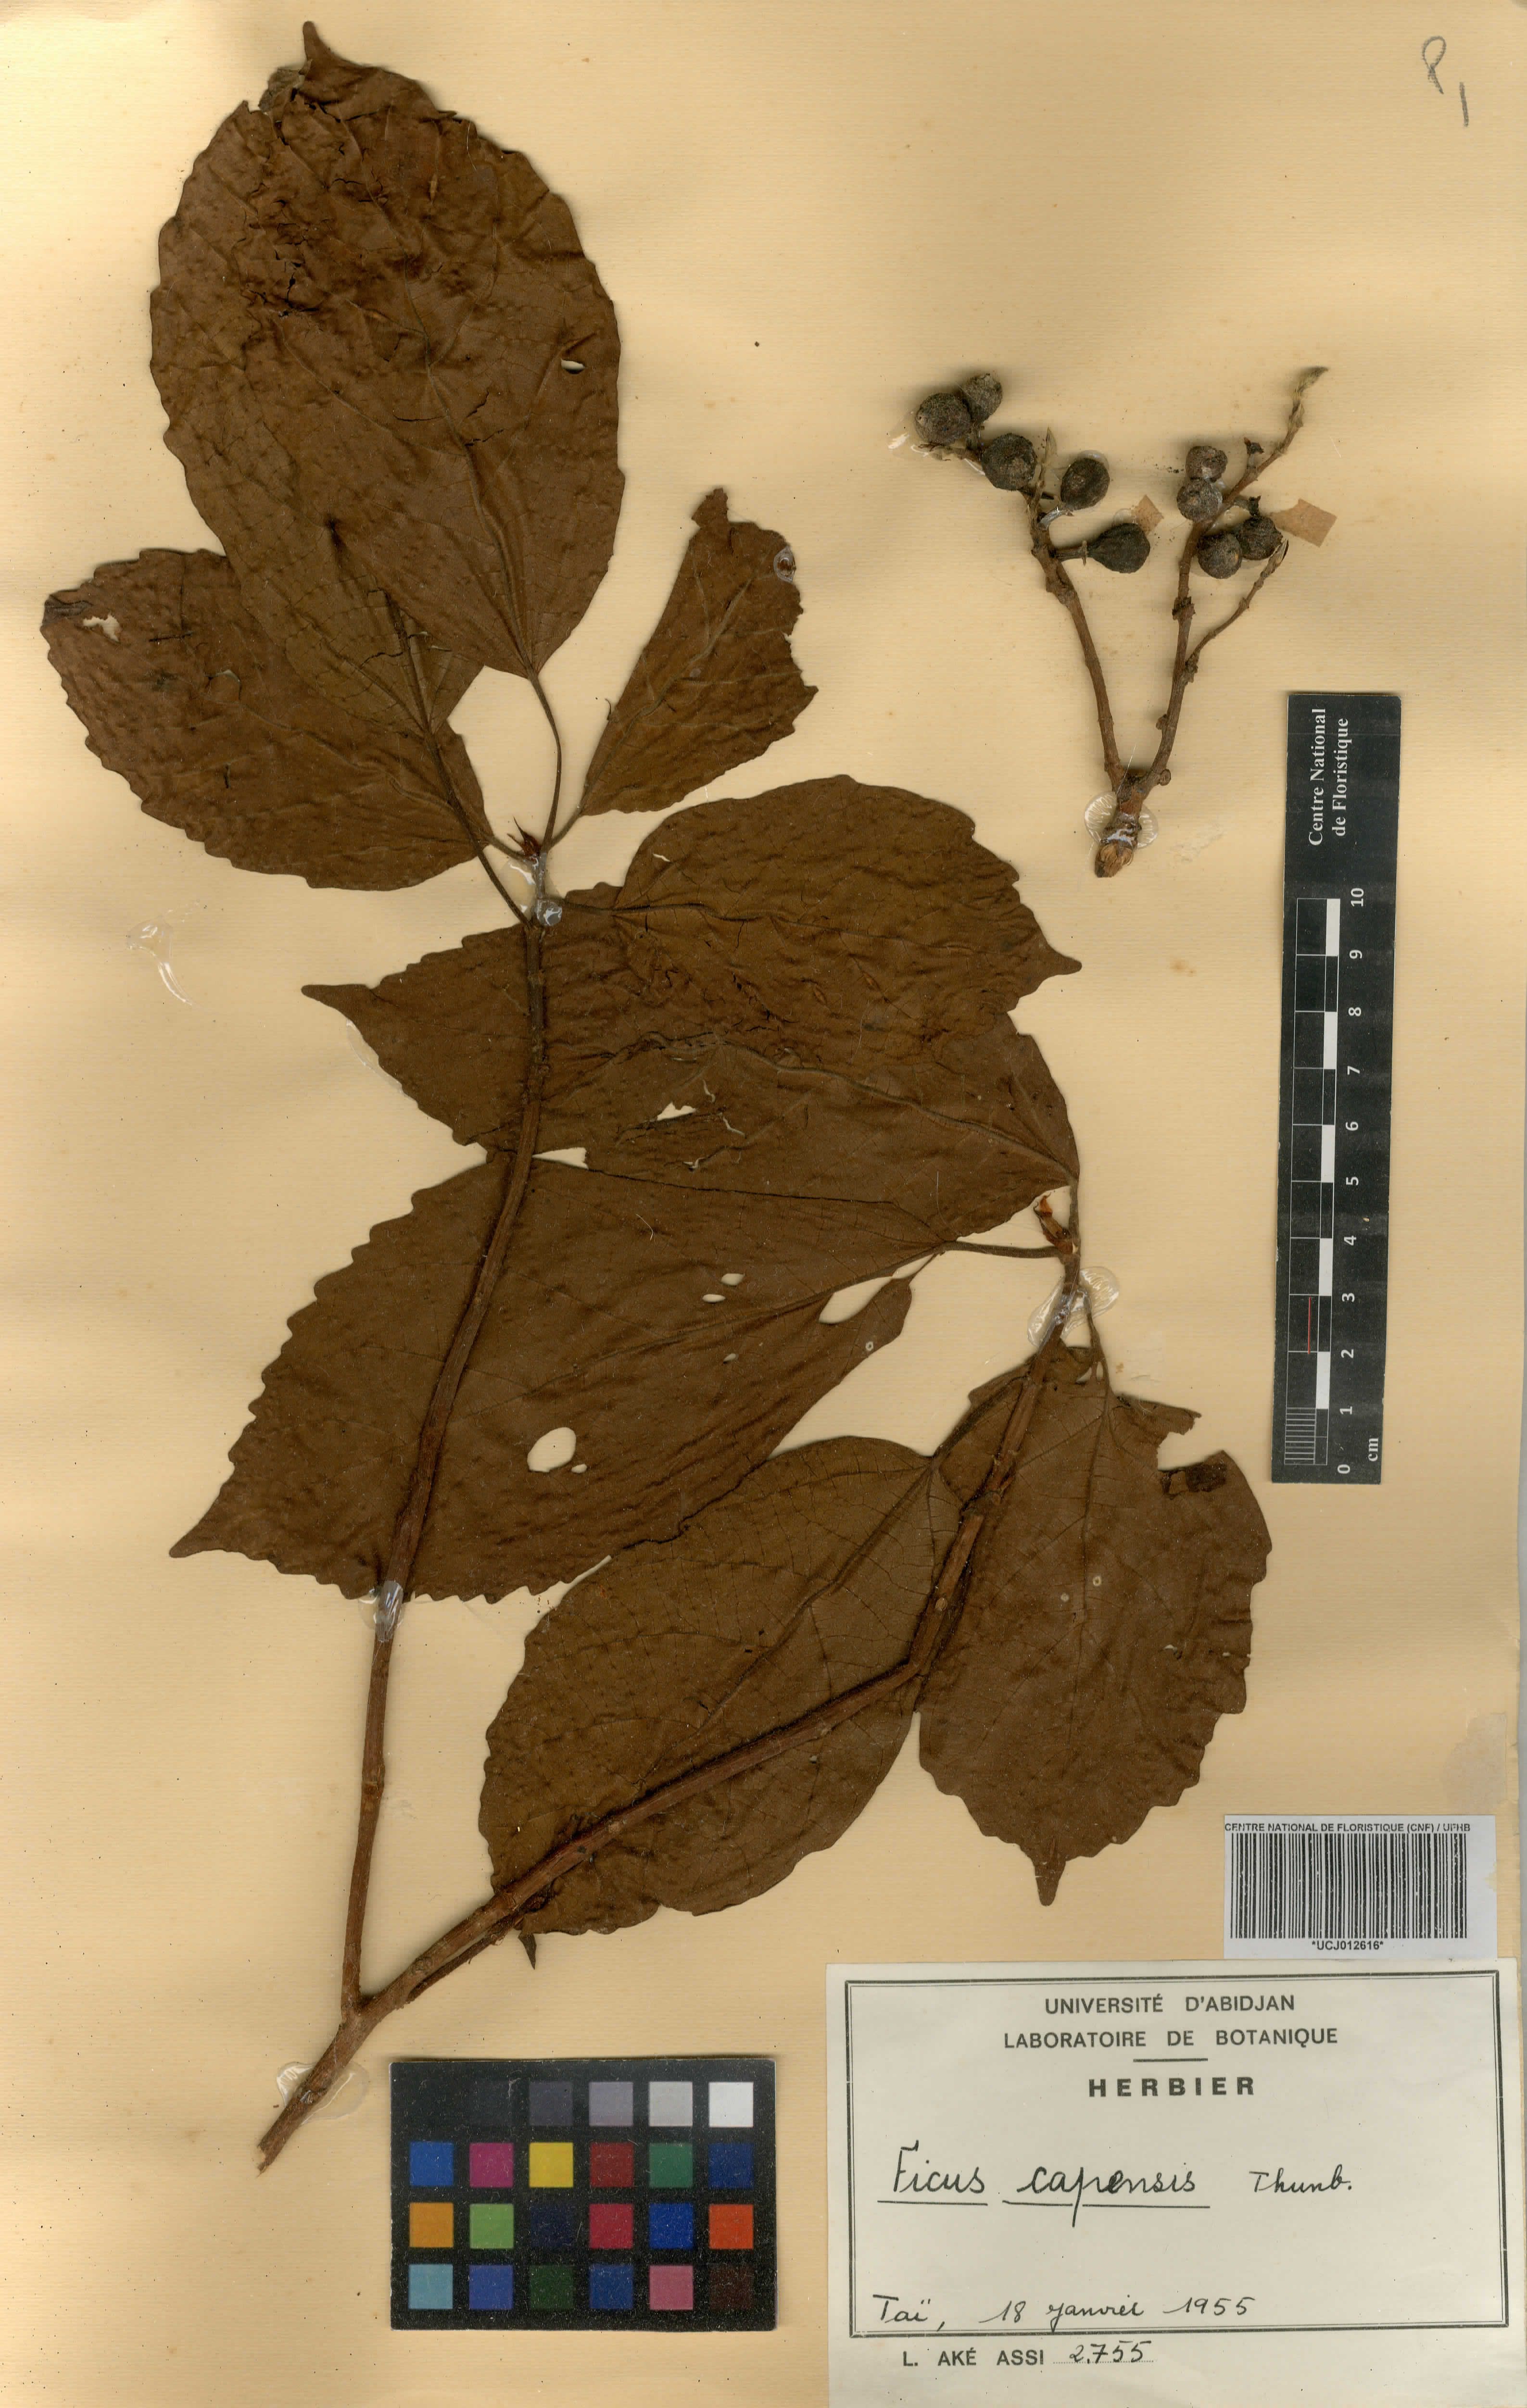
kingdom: Plantae
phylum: Tracheophyta
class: Magnoliopsida
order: Rosales
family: Moraceae
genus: Ficus
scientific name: Ficus sur
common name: Cape fig
